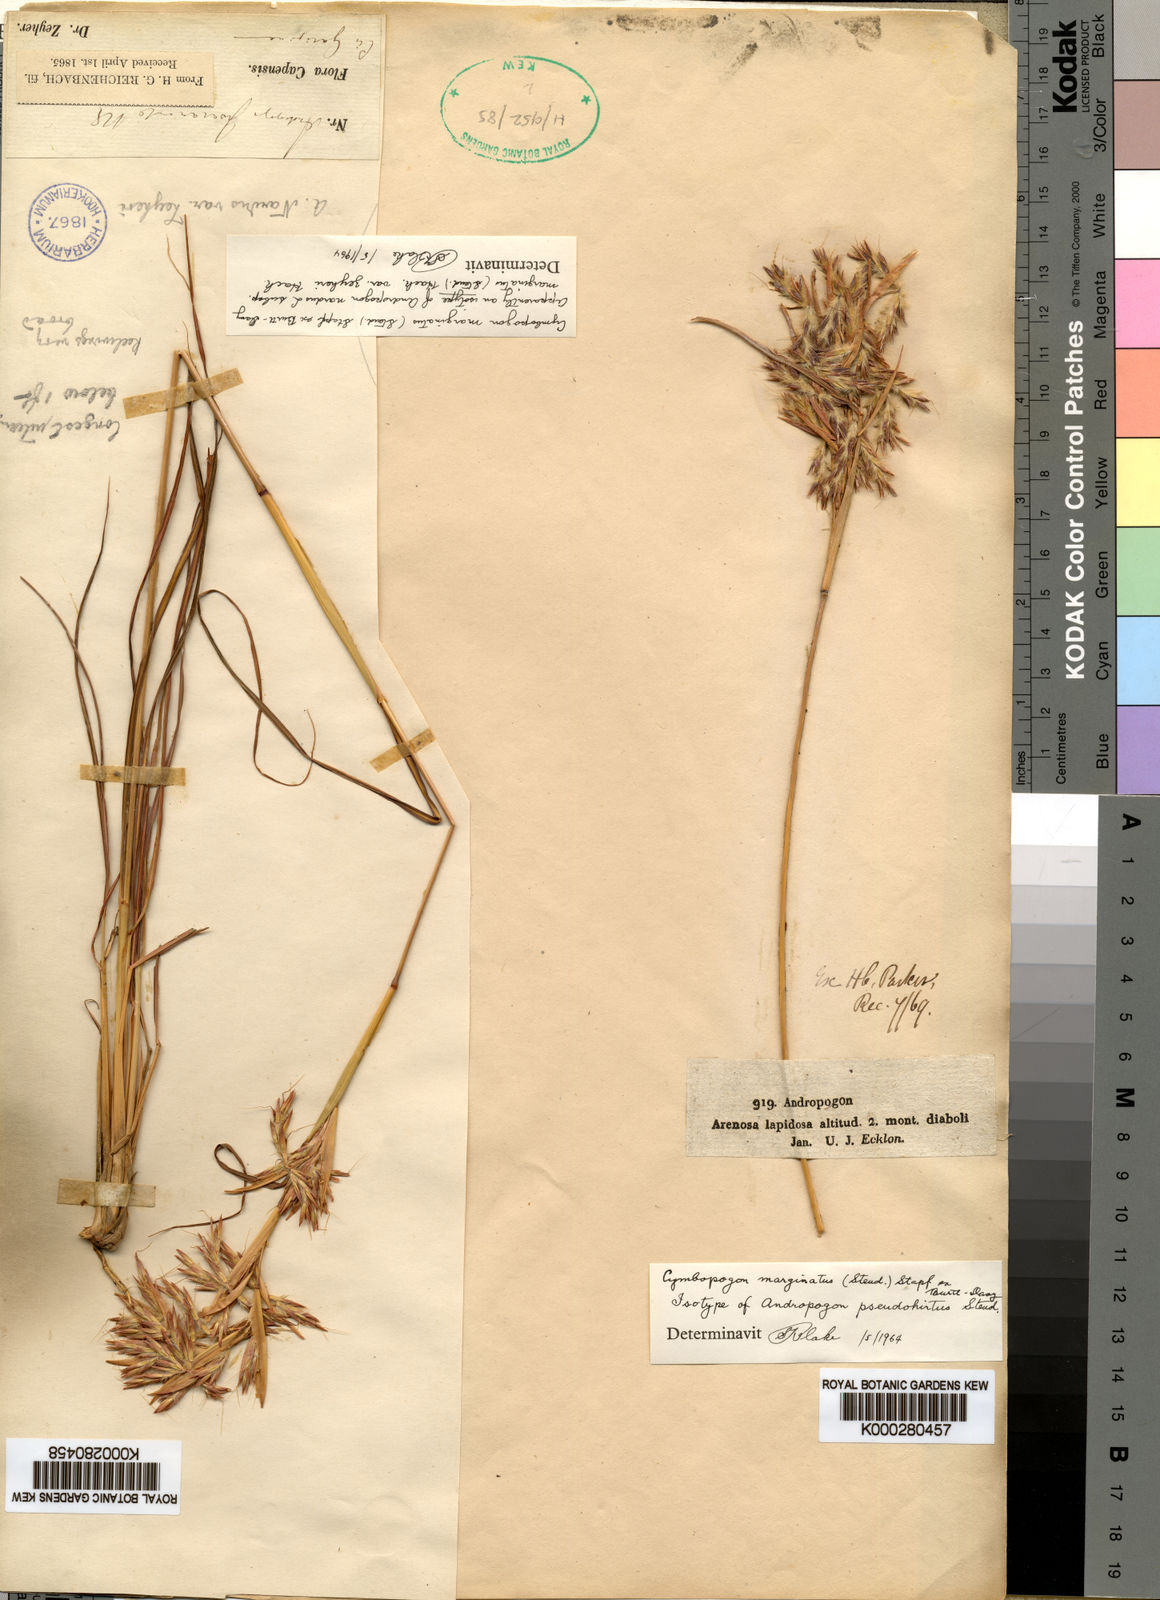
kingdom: Plantae
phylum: Tracheophyta
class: Liliopsida
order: Poales
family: Poaceae
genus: Cymbopogon
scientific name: Cymbopogon nardus
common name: Giant turpentine grass
